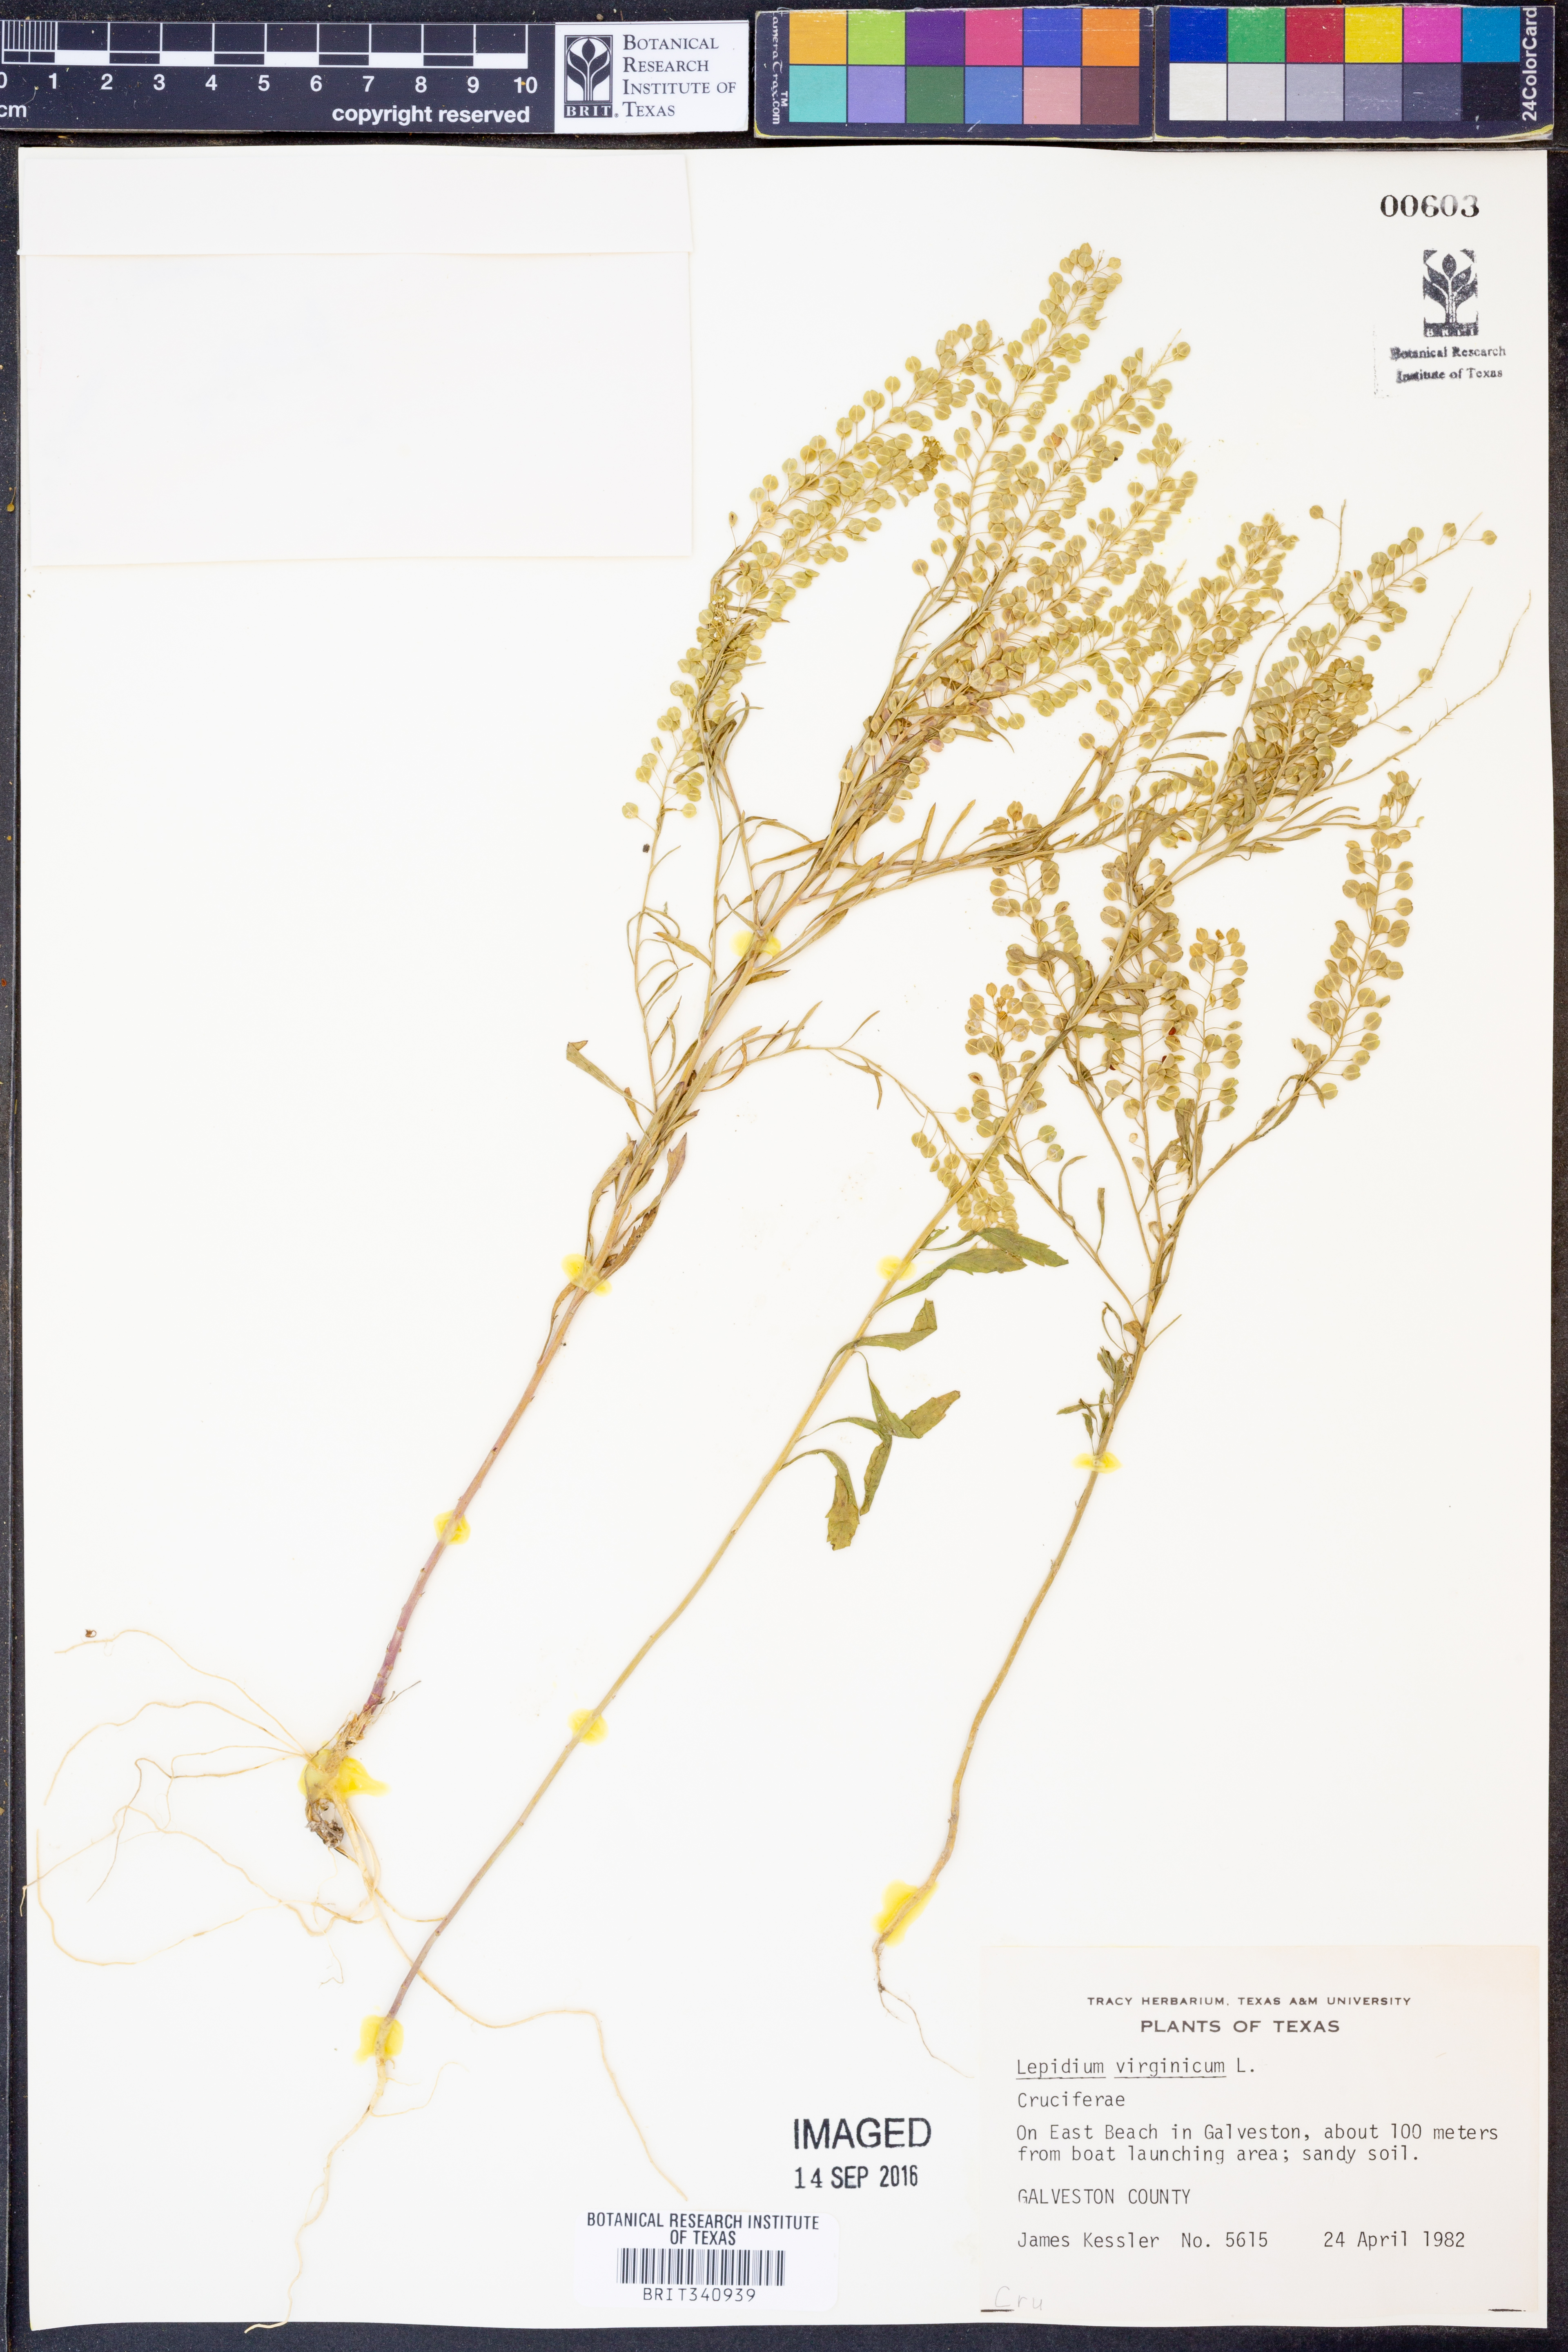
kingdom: Plantae
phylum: Tracheophyta
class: Magnoliopsida
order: Brassicales
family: Brassicaceae
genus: Lepidium
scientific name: Lepidium virginicum
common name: Least pepperwort
